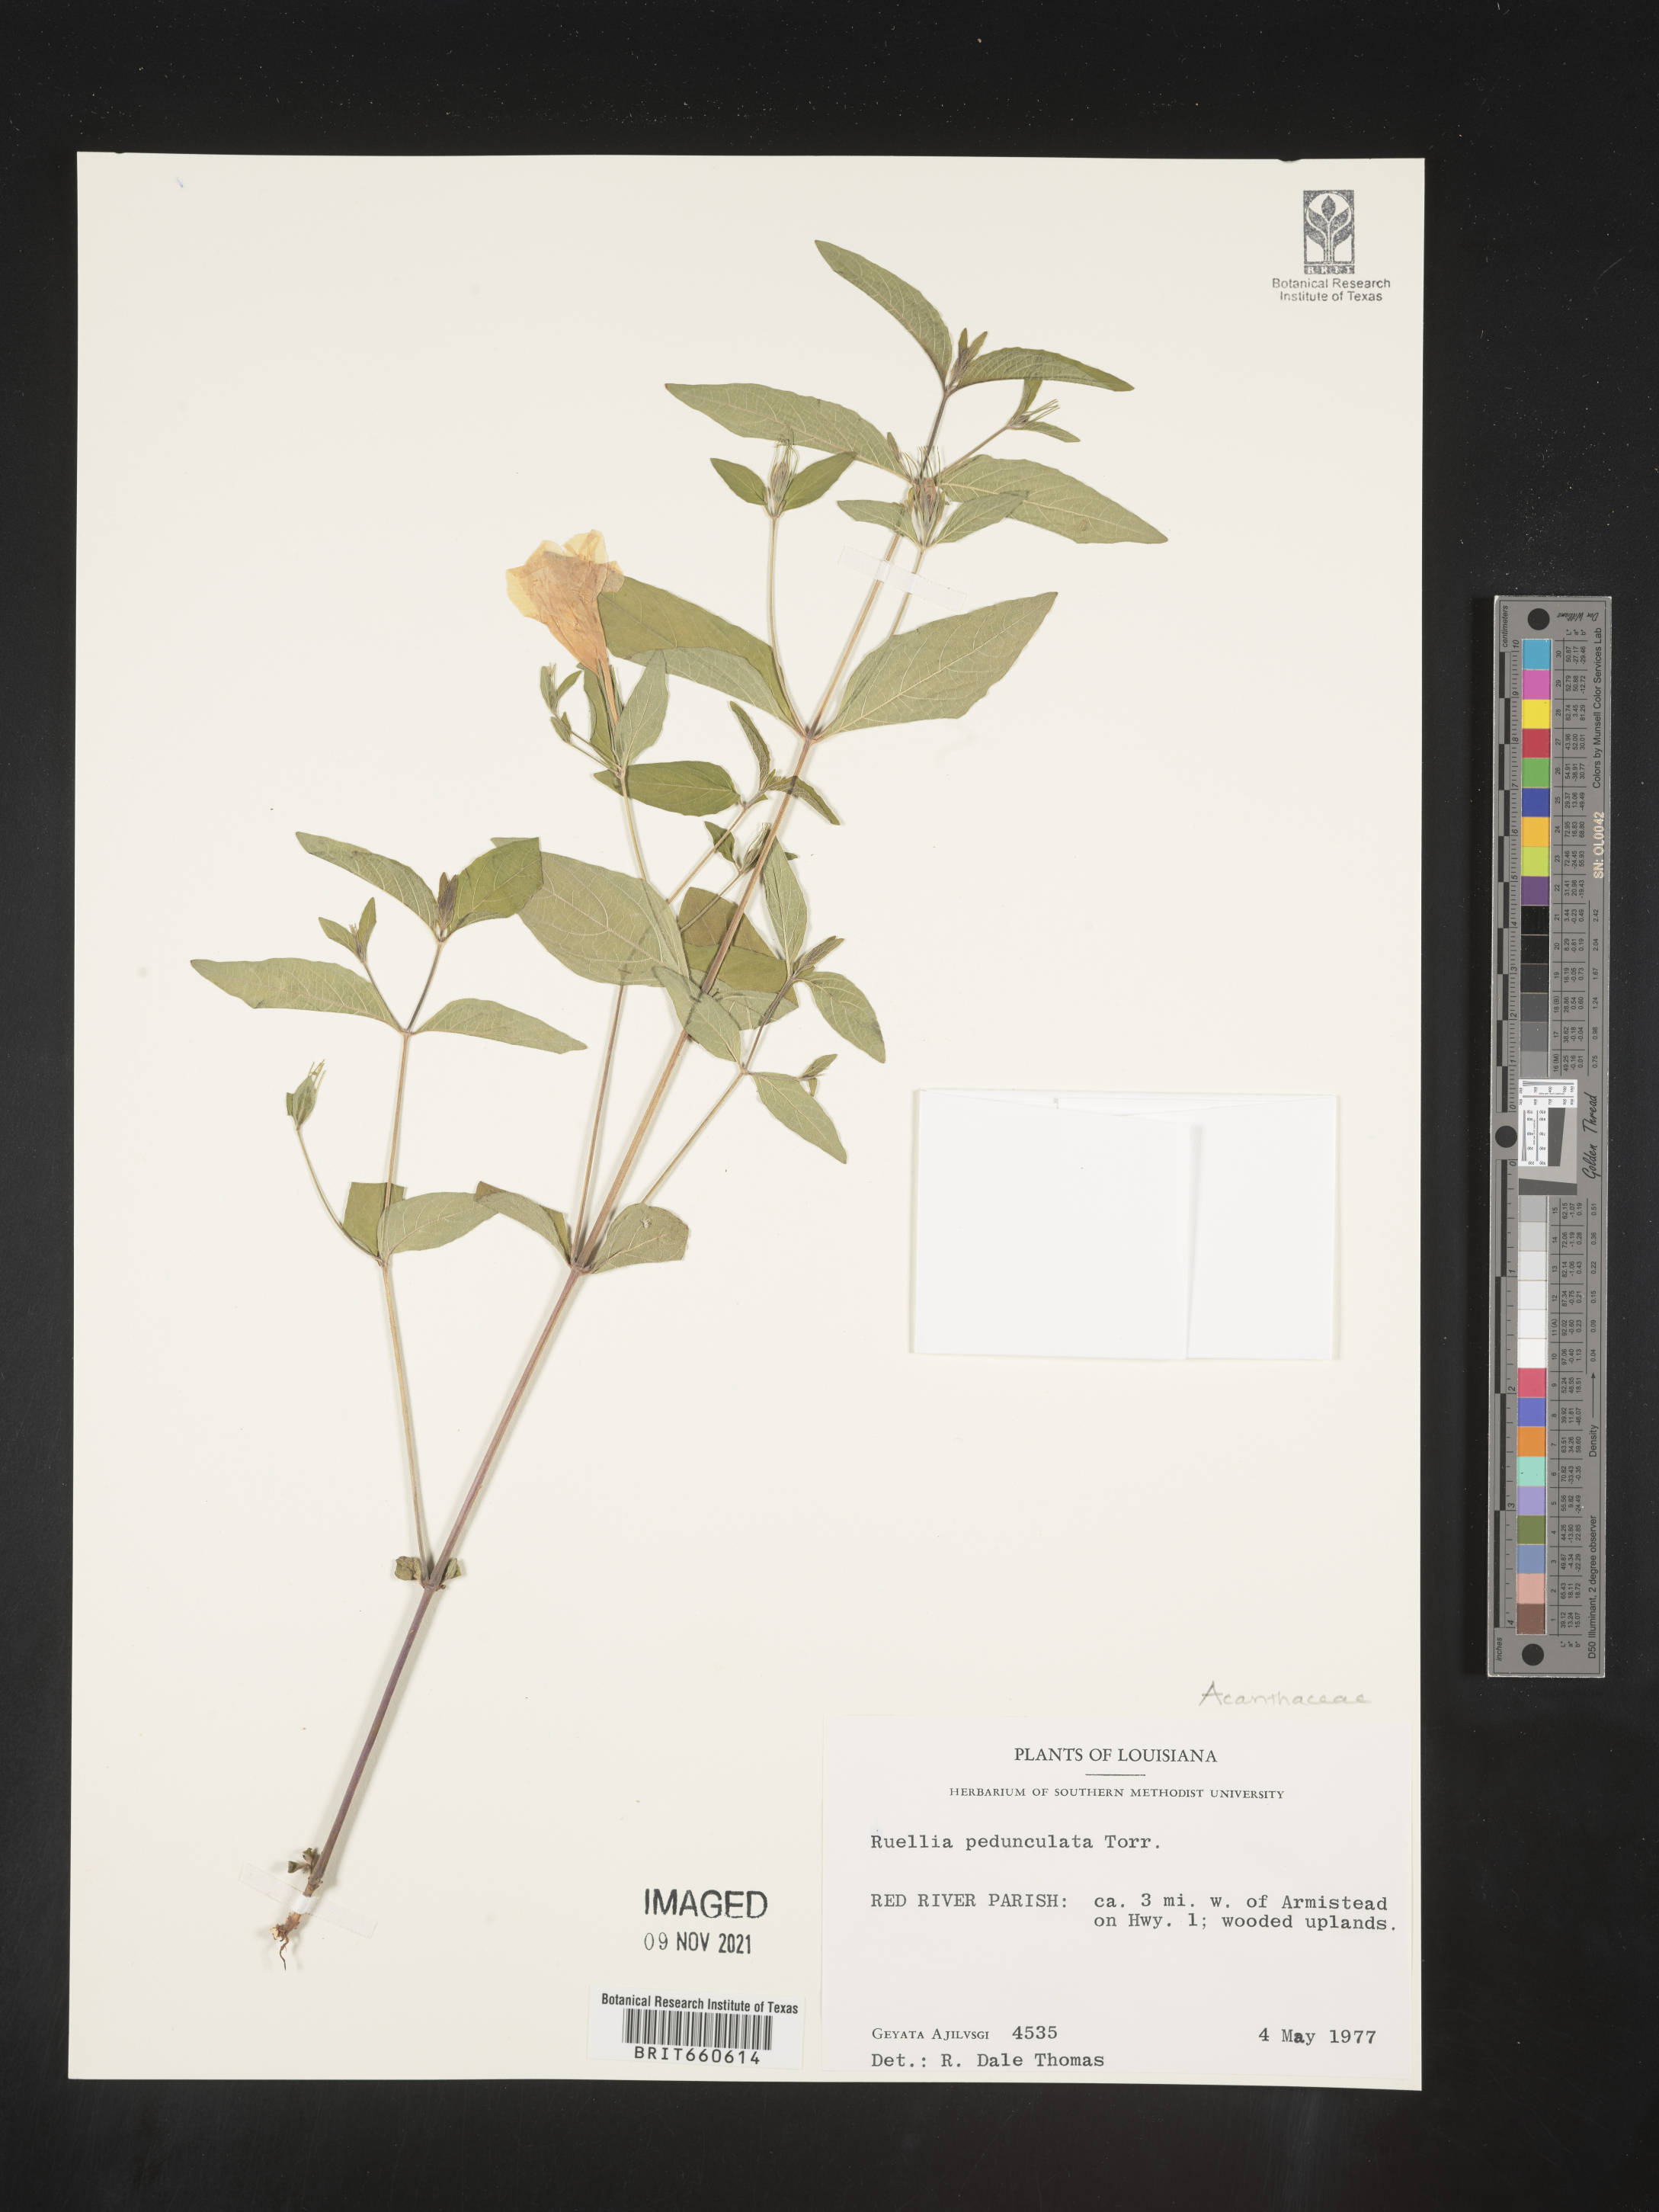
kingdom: Plantae
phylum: Tracheophyta
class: Magnoliopsida
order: Lamiales
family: Acanthaceae
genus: Ruellia
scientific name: Ruellia pedunculata
